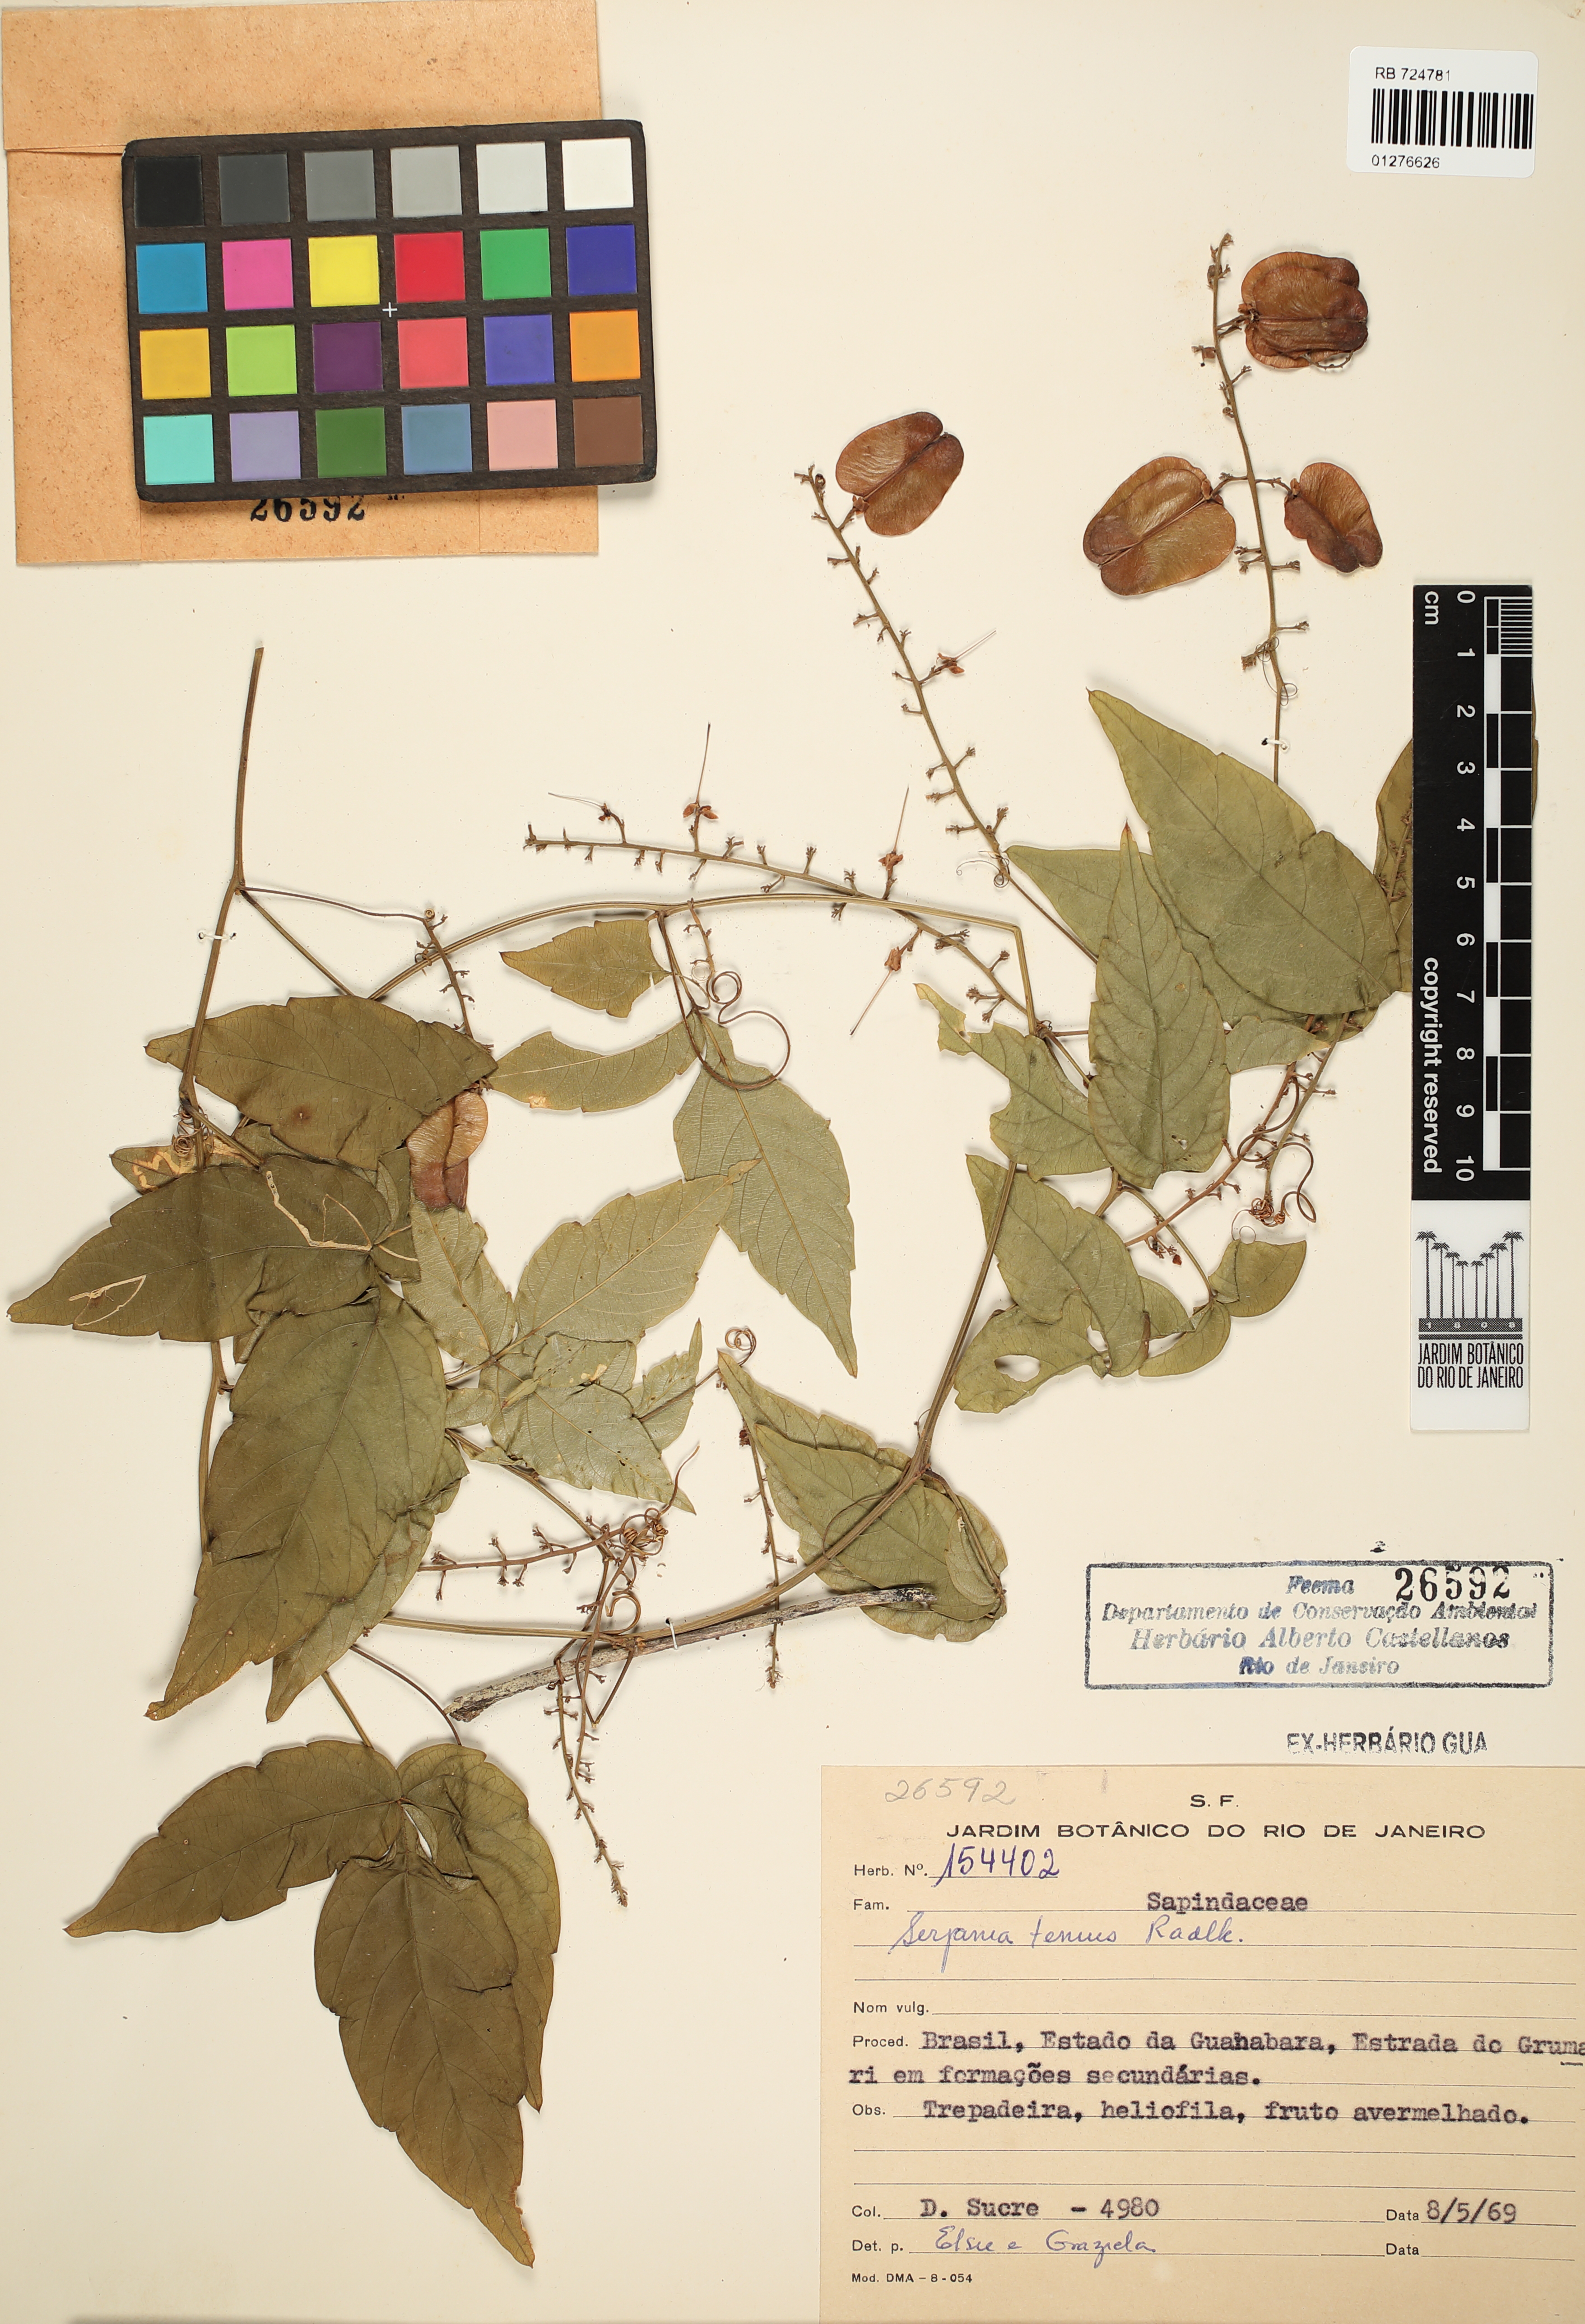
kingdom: Plantae
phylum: Tracheophyta
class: Magnoliopsida
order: Sapindales
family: Sapindaceae
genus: Serjania
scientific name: Serjania tenuis
